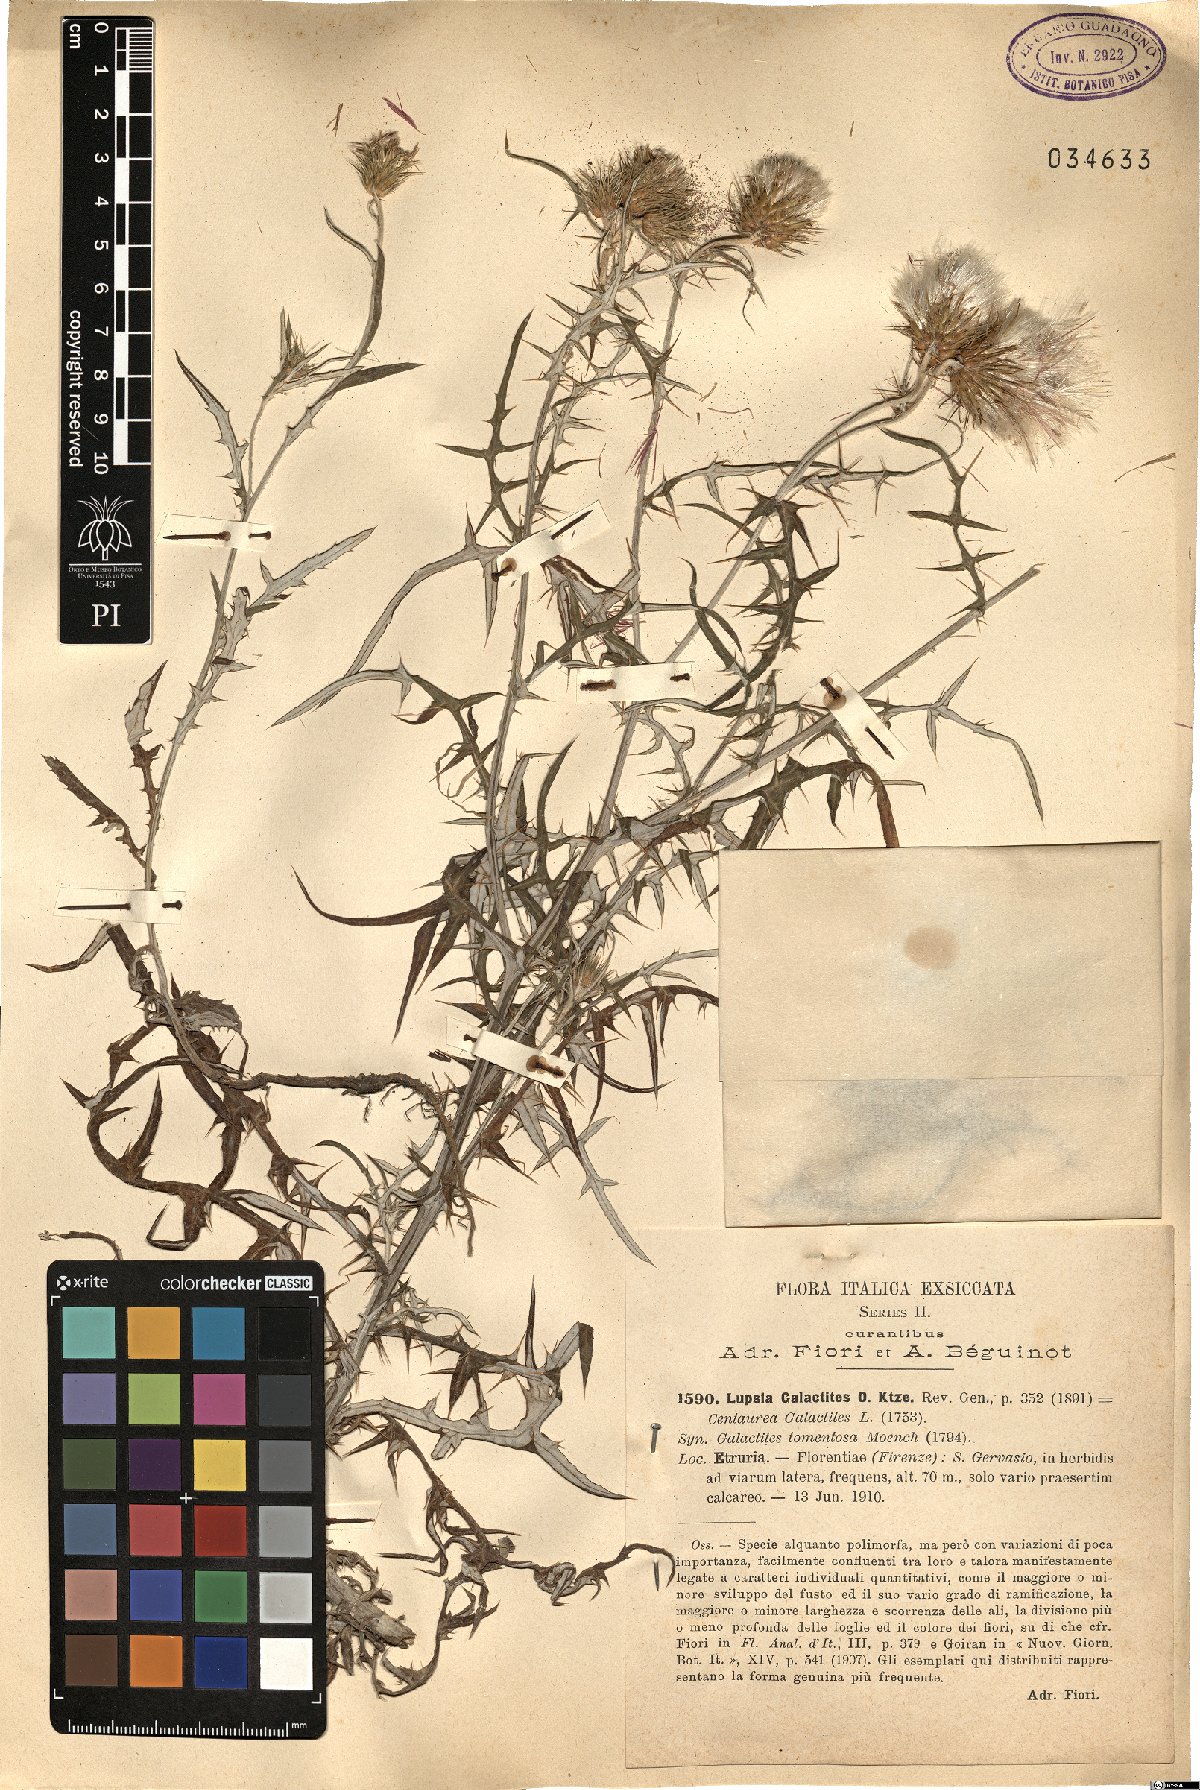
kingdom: Plantae
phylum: Tracheophyta
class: Magnoliopsida
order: Asterales
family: Asteraceae
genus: Galactites
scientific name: Galactites tomentosa
